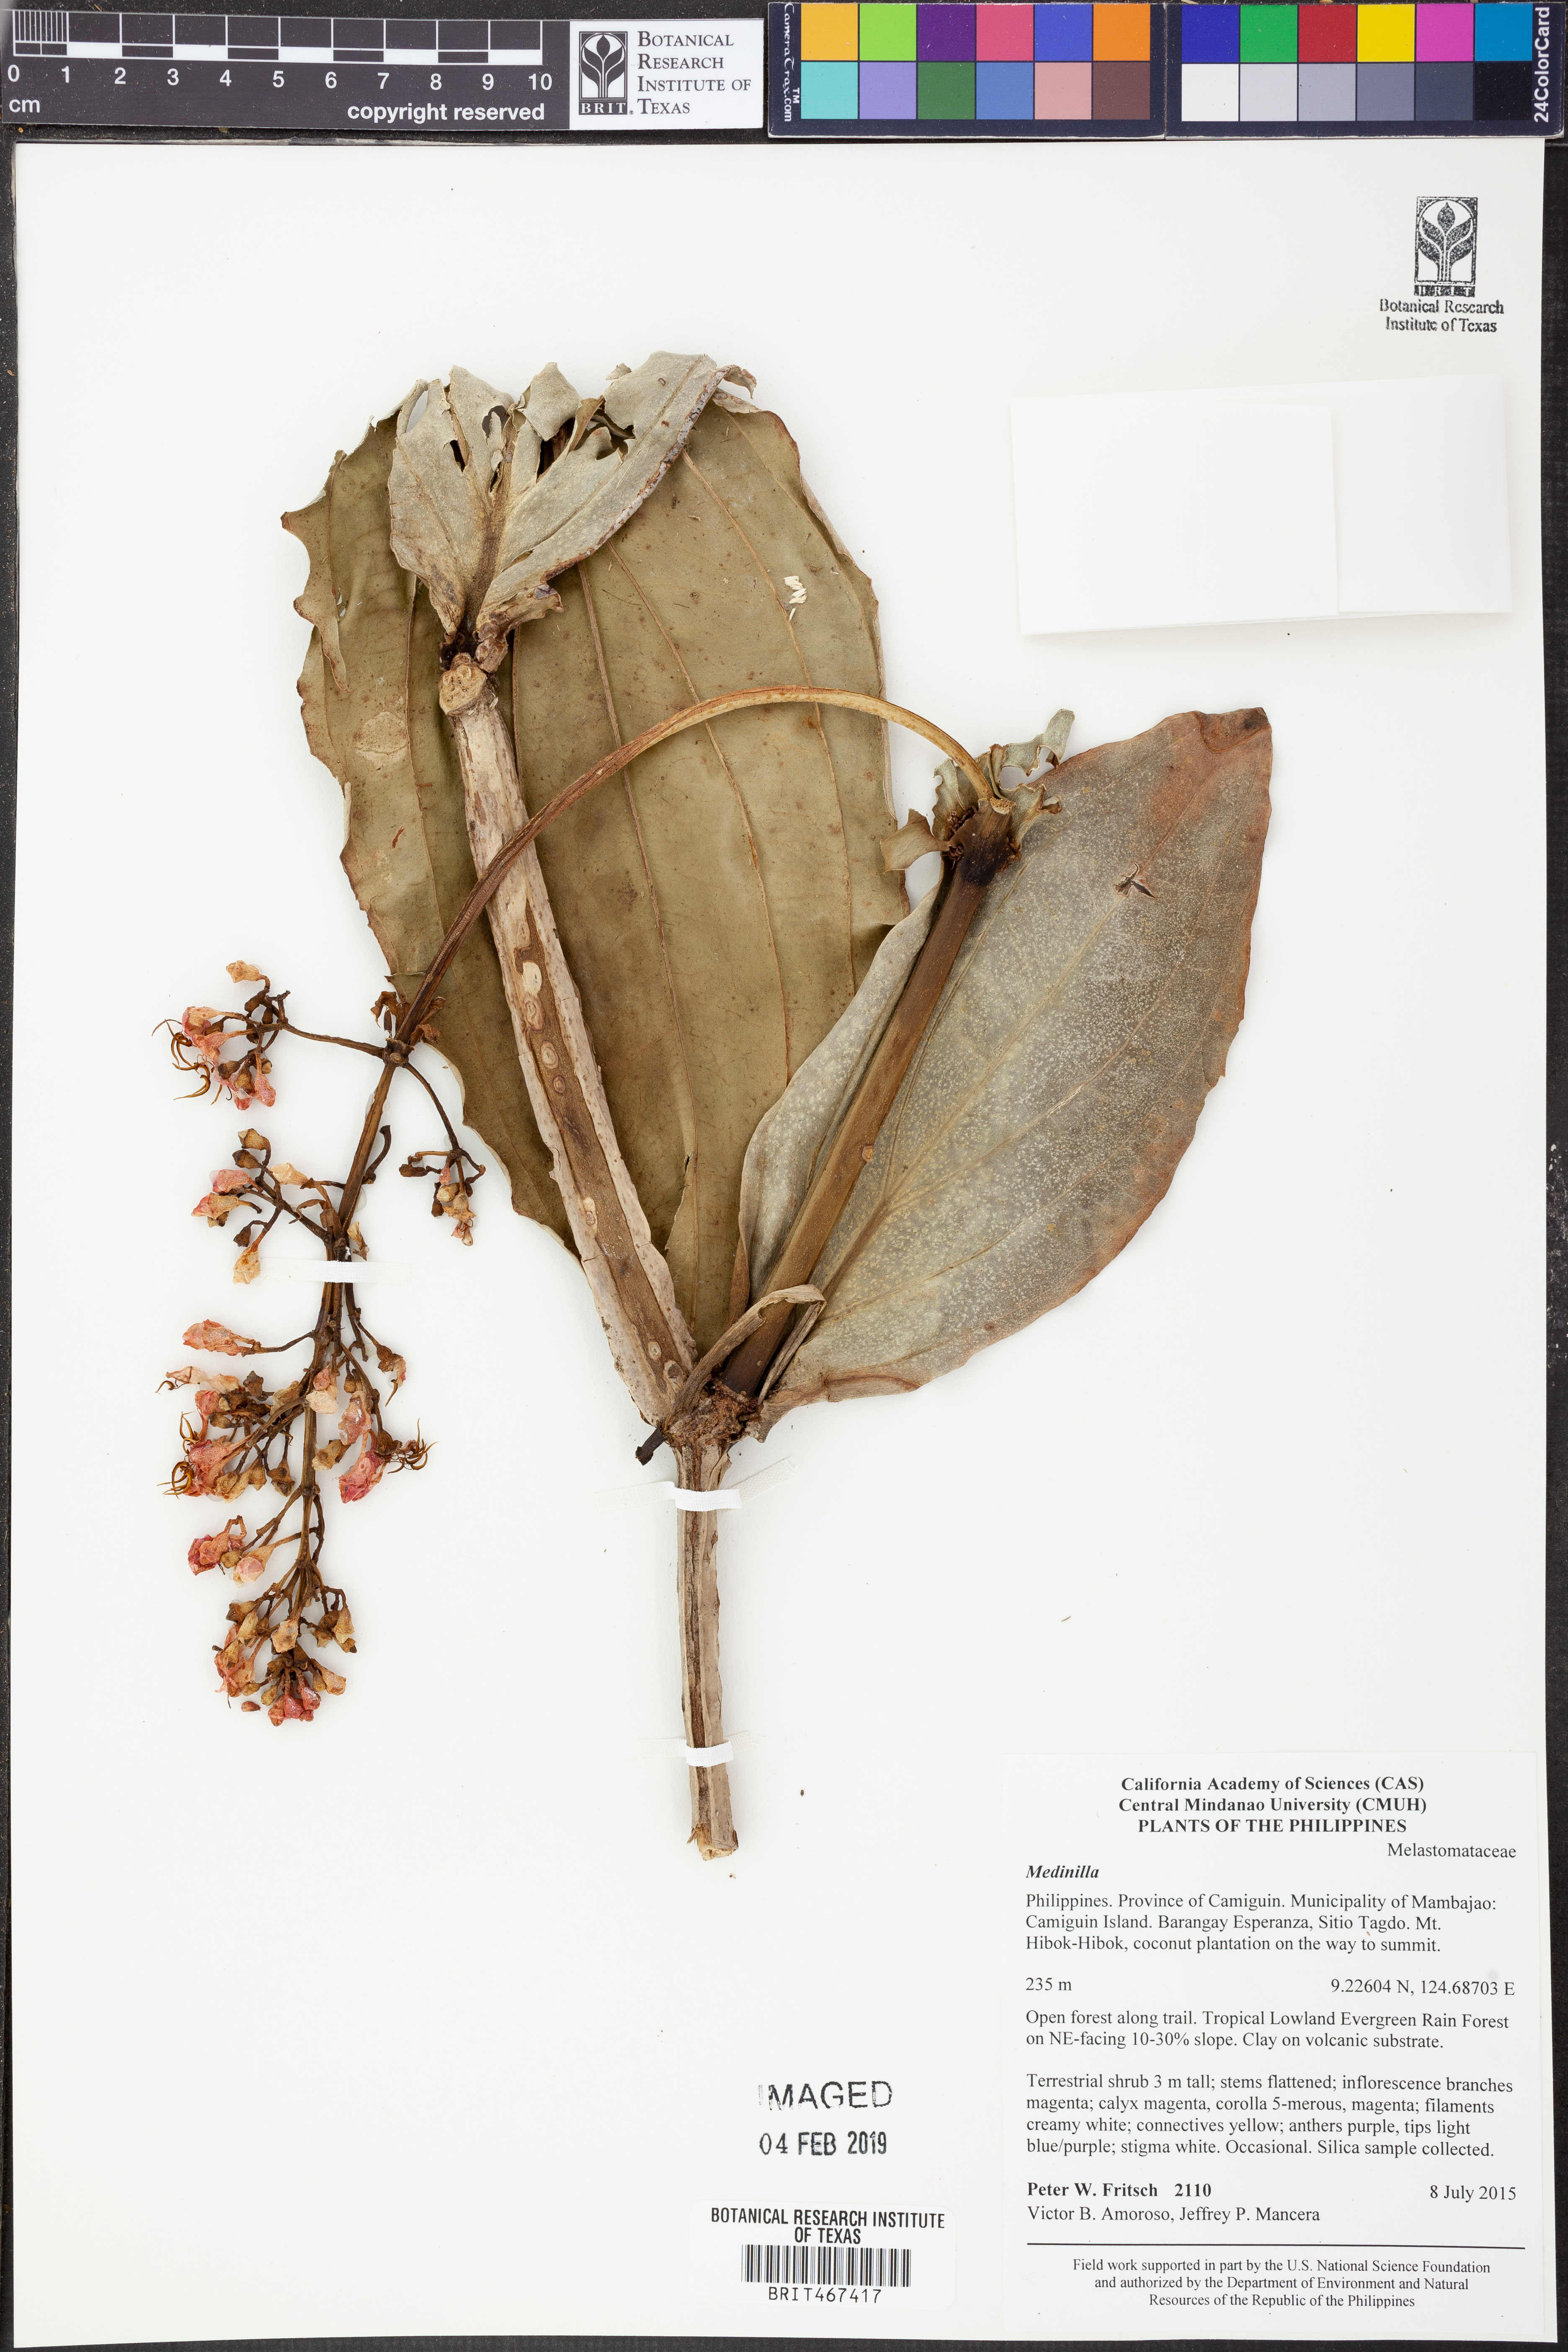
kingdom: Plantae
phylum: Tracheophyta
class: Magnoliopsida
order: Myrtales
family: Melastomataceae
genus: Medinilla
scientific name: Medinilla
